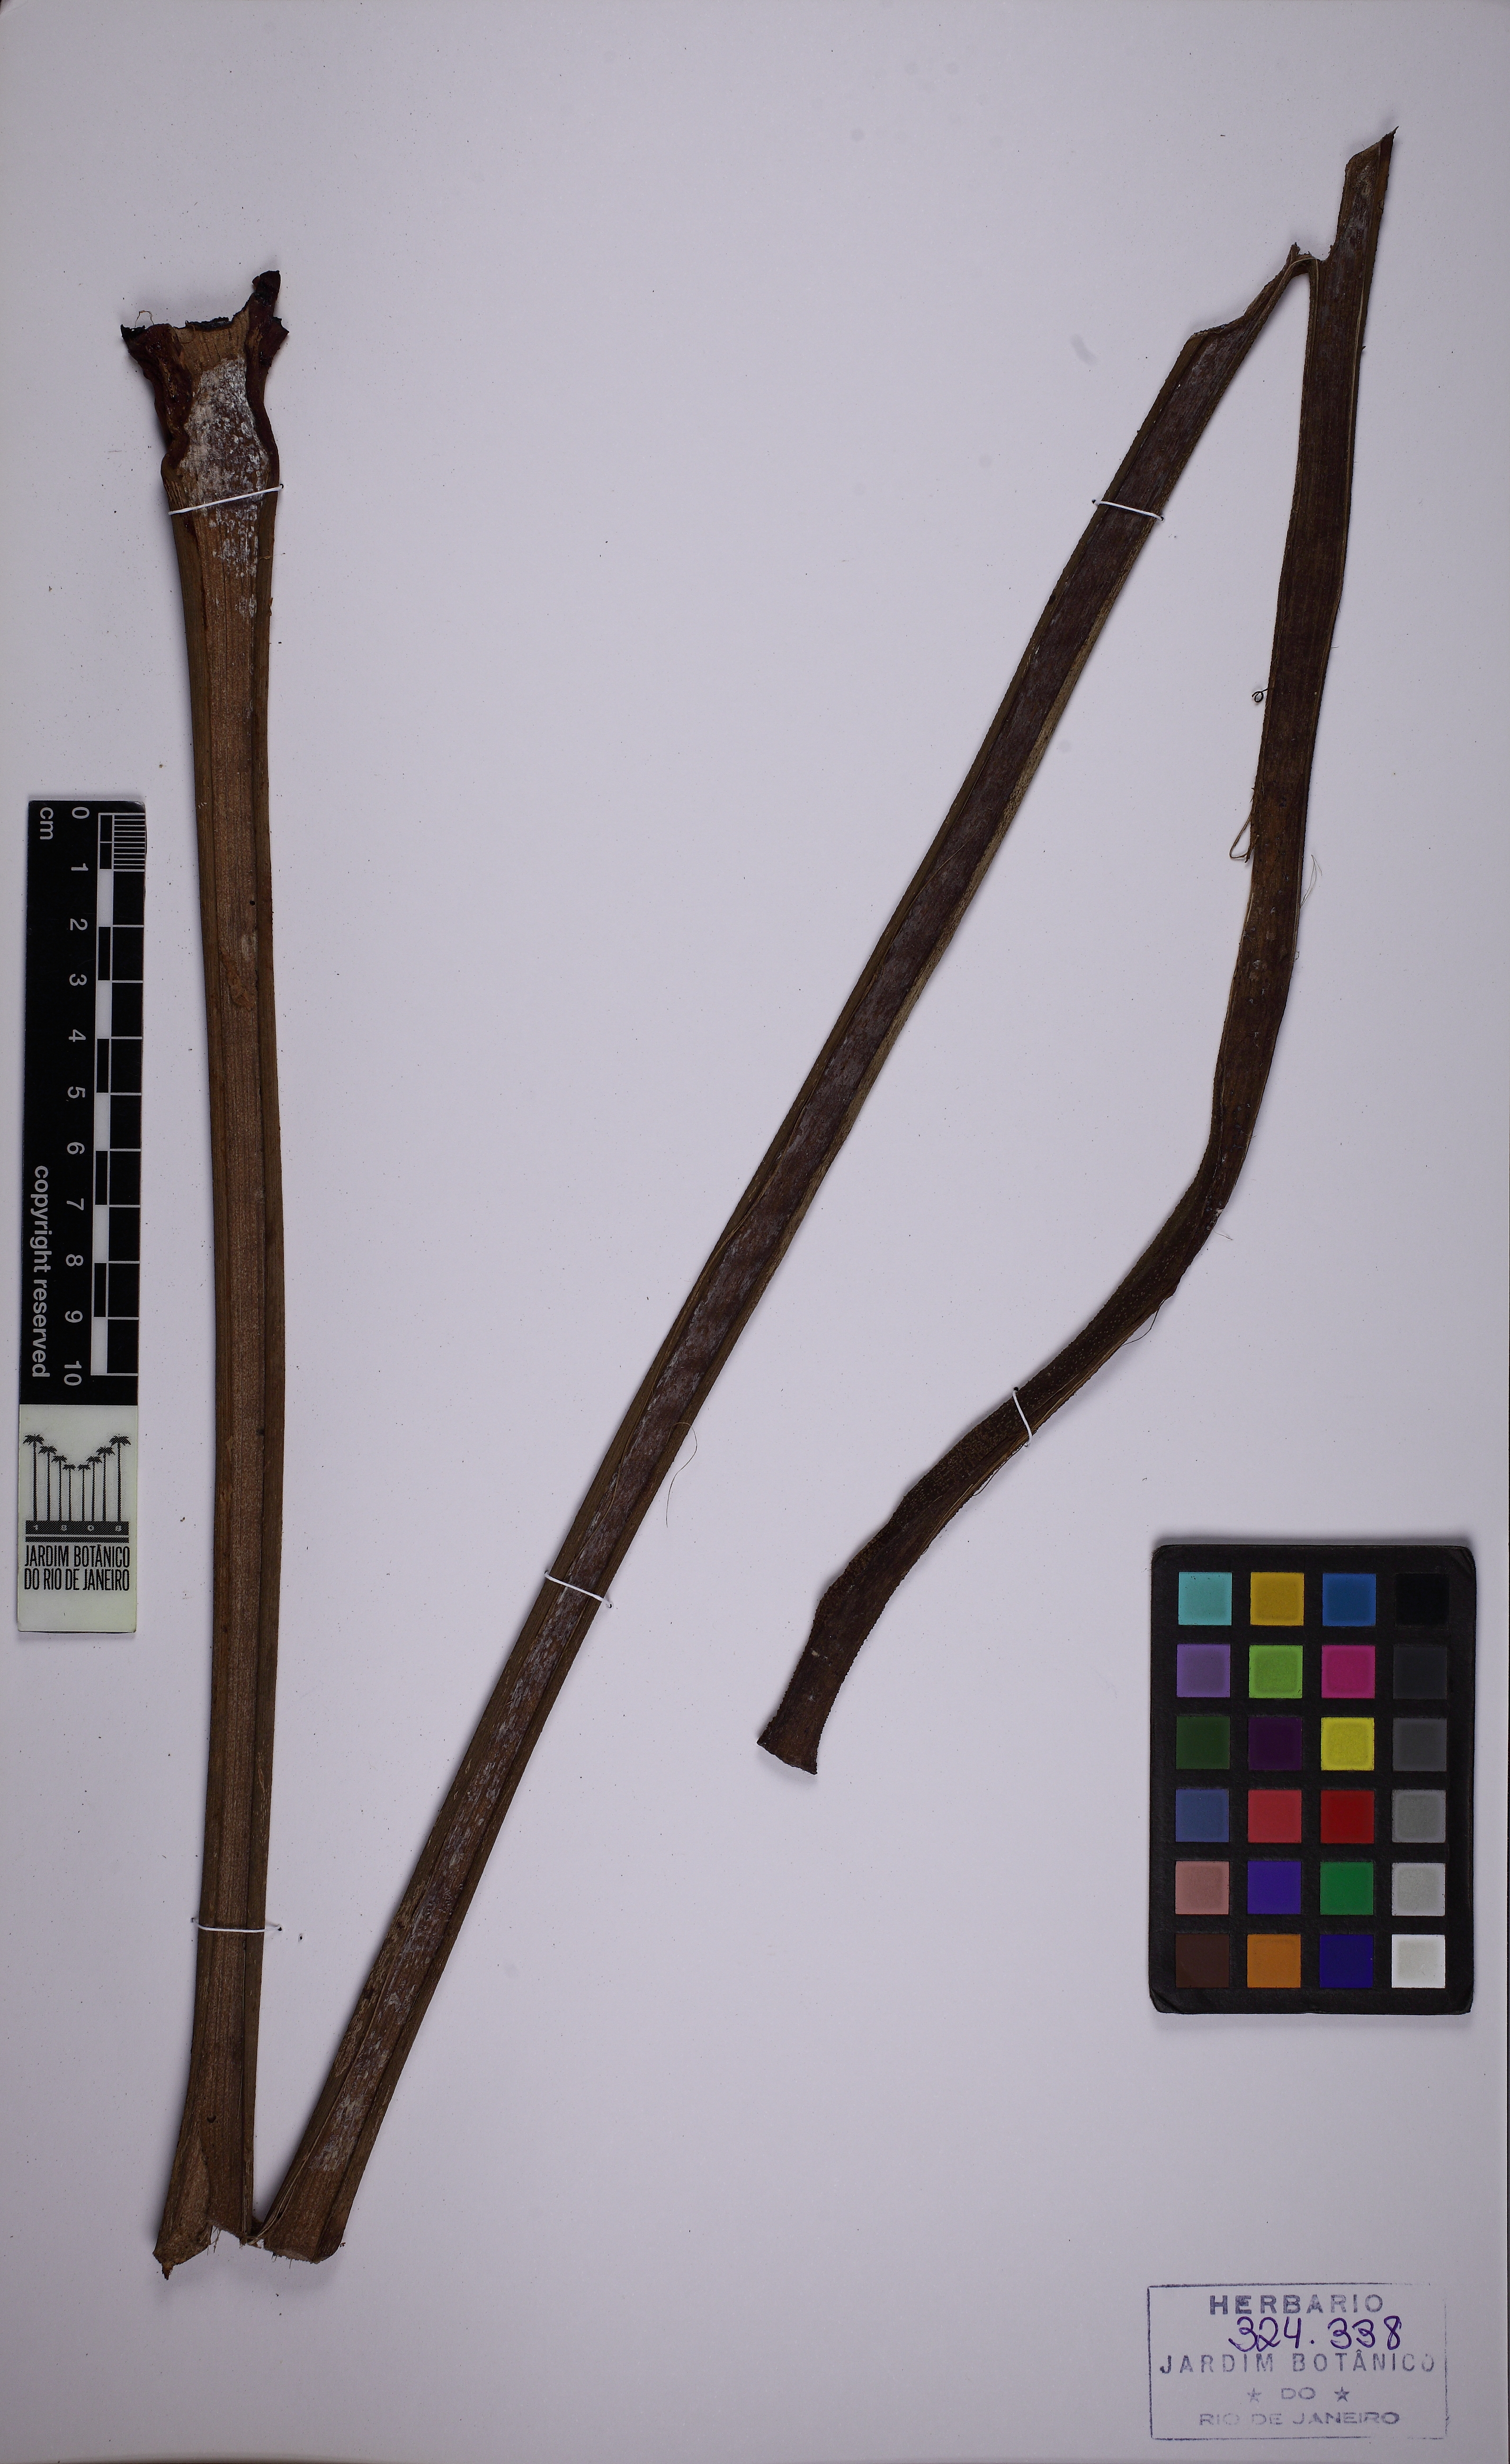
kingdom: Plantae
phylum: Tracheophyta
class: Liliopsida
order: Alismatales
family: Araceae
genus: Philodendron
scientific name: Philodendron ornatum
